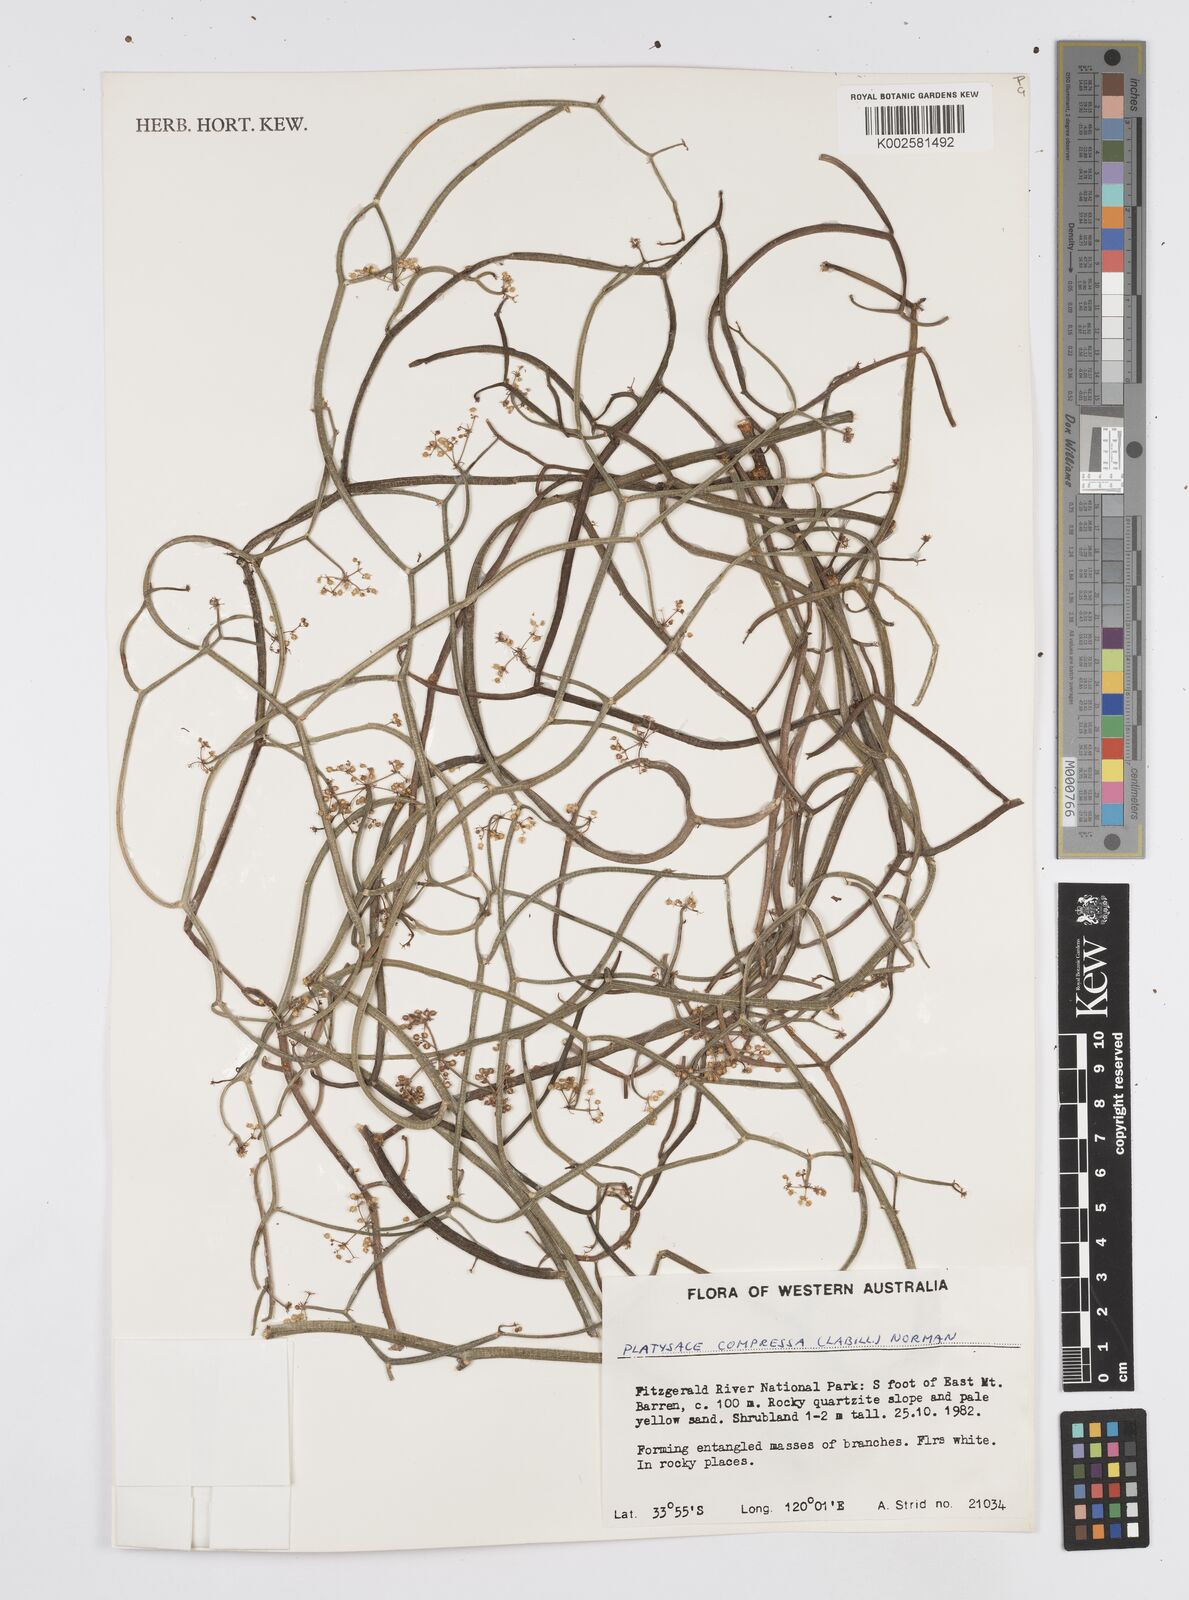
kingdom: Plantae
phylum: Tracheophyta
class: Magnoliopsida
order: Apiales
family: Apiaceae
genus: Centella
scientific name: Centella
